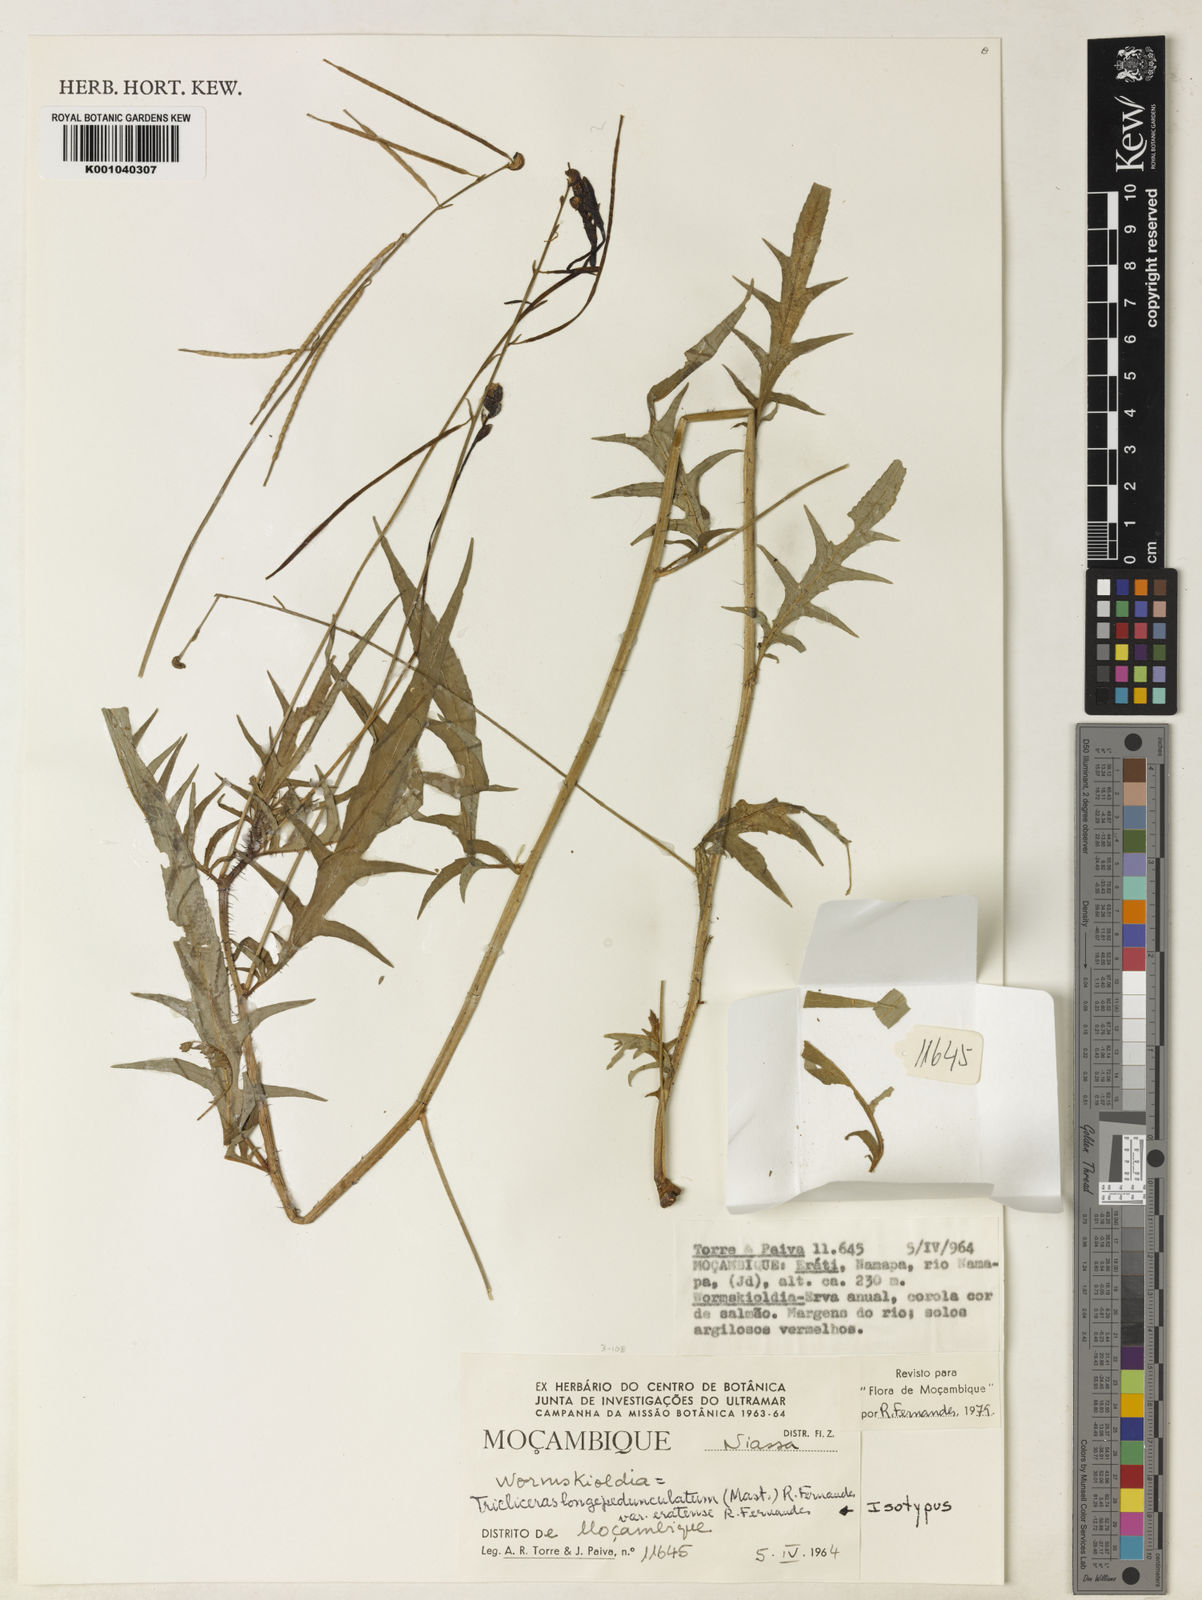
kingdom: Plantae
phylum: Tracheophyta
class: Magnoliopsida
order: Malpighiales
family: Turneraceae
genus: Tricliceras
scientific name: Tricliceras
